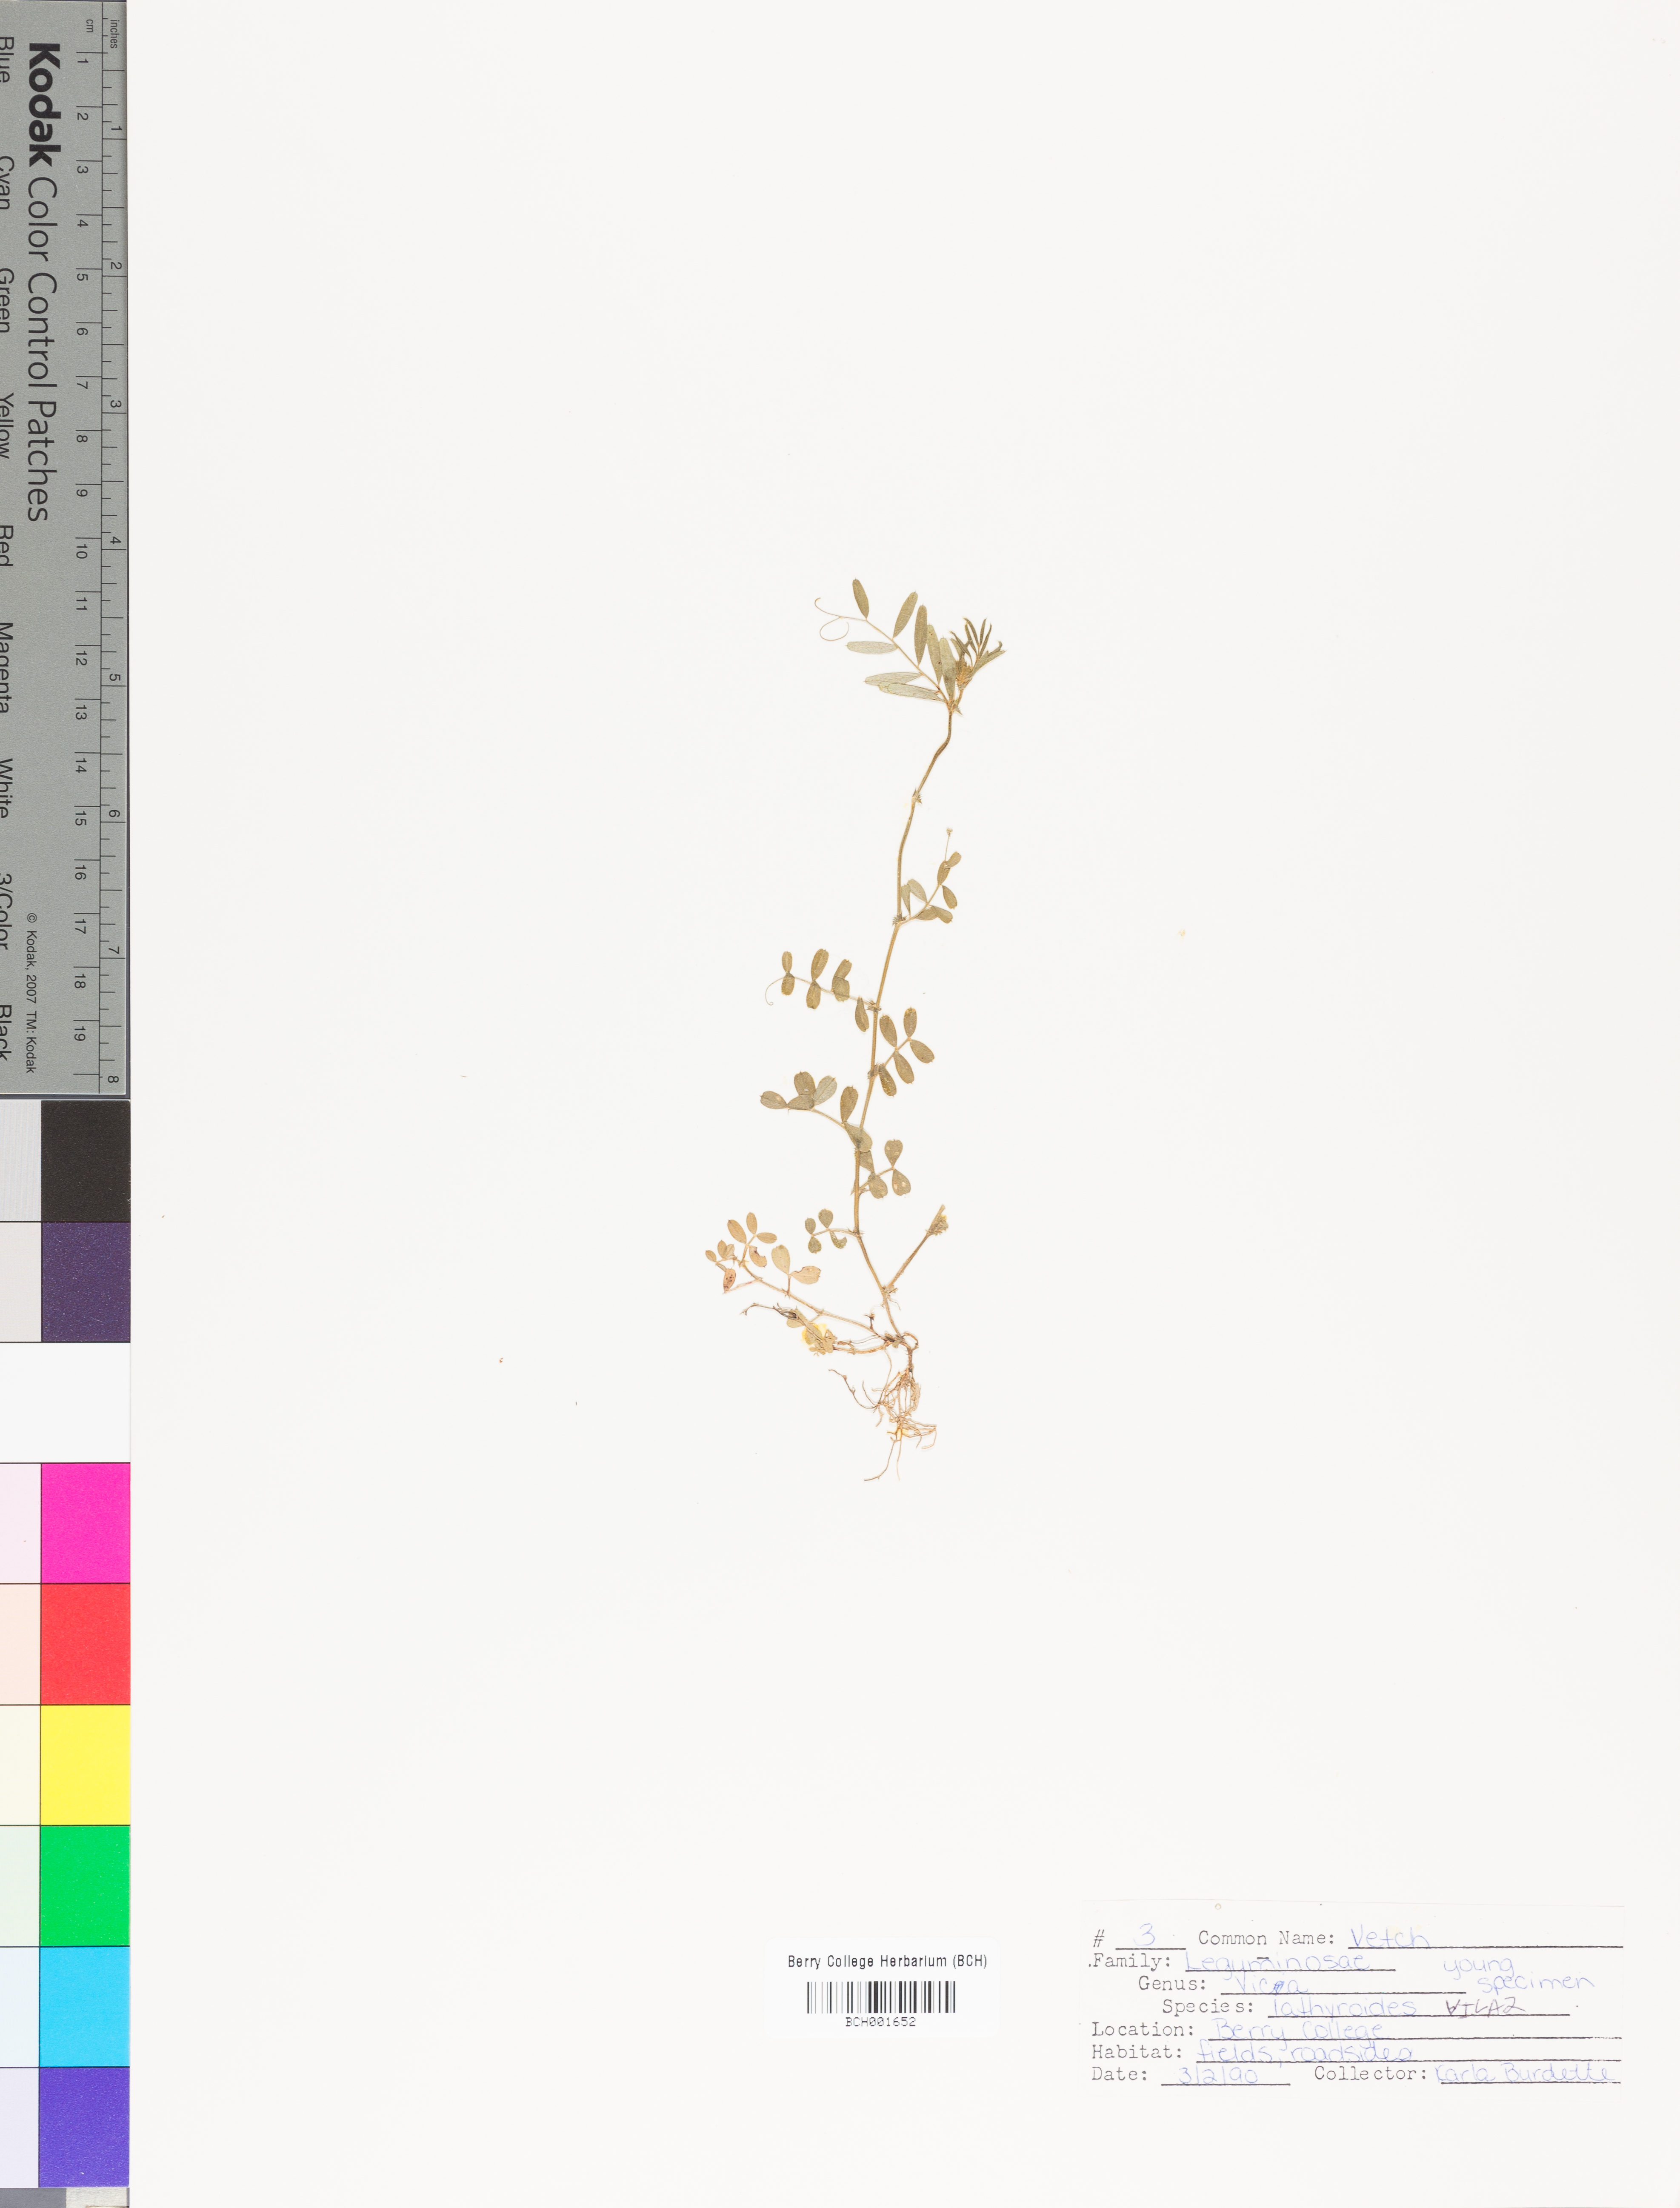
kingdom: Plantae
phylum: Tracheophyta
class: Magnoliopsida
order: Fabales
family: Fabaceae
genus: Vicia
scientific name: Vicia lathyroides
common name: Spring vetch
